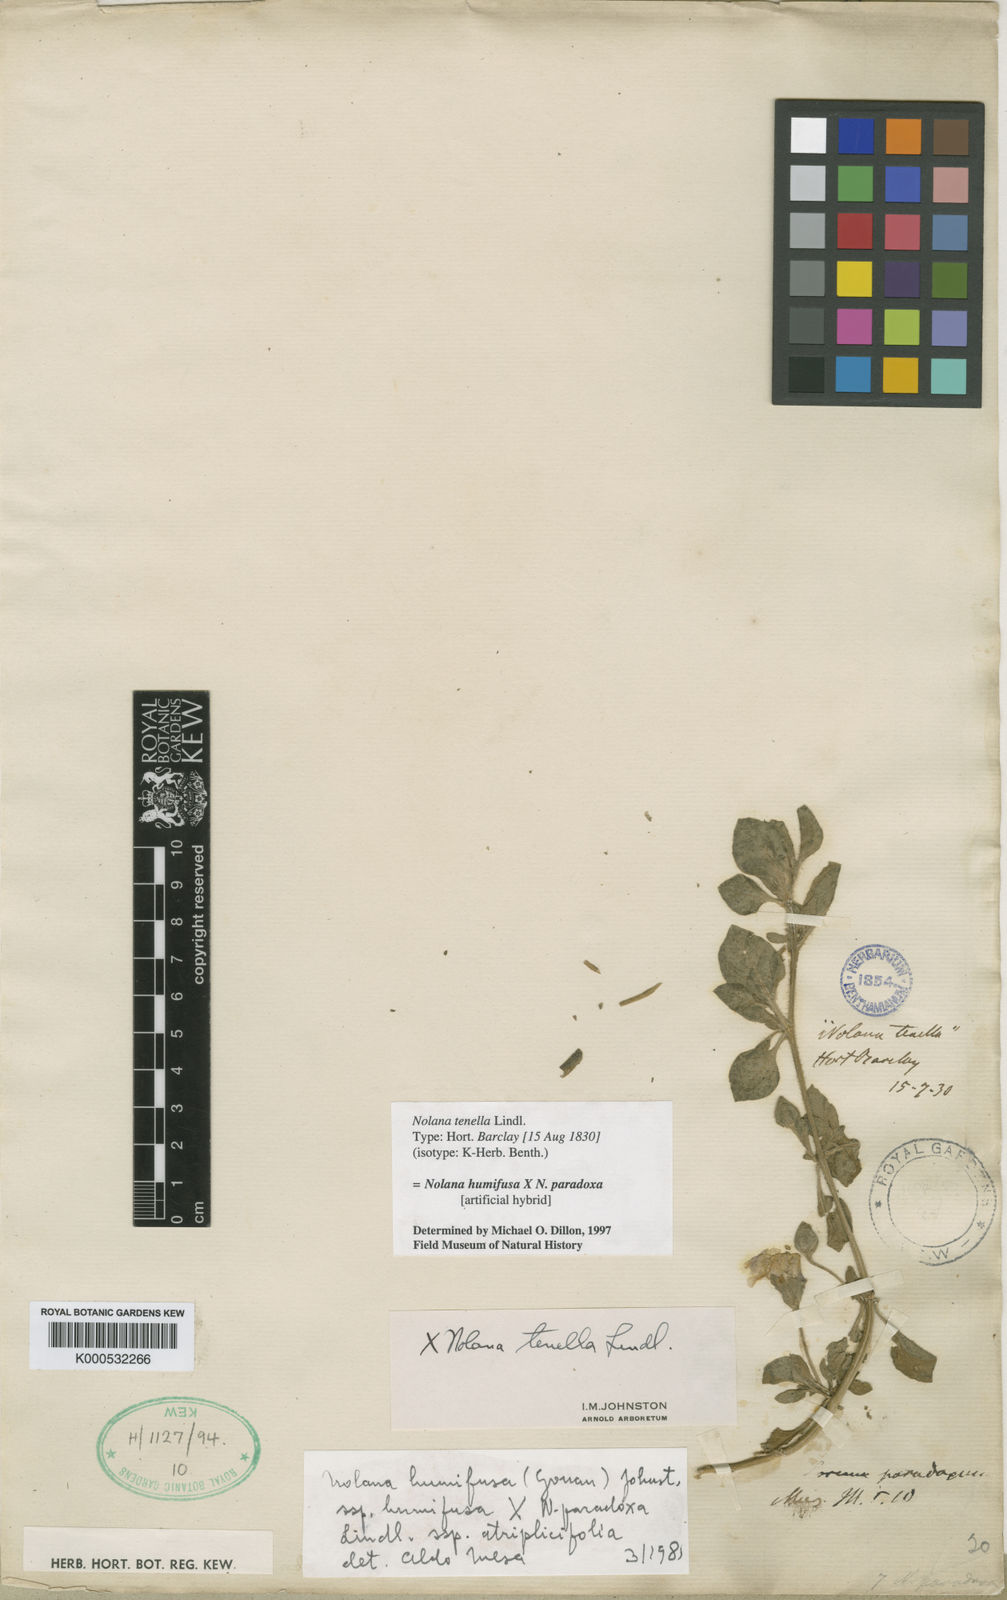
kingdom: Plantae
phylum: Tracheophyta
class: Magnoliopsida
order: Solanales
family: Solanaceae
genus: Nolana
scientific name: Nolana humifusa
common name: Trailing chilean-bellflower
